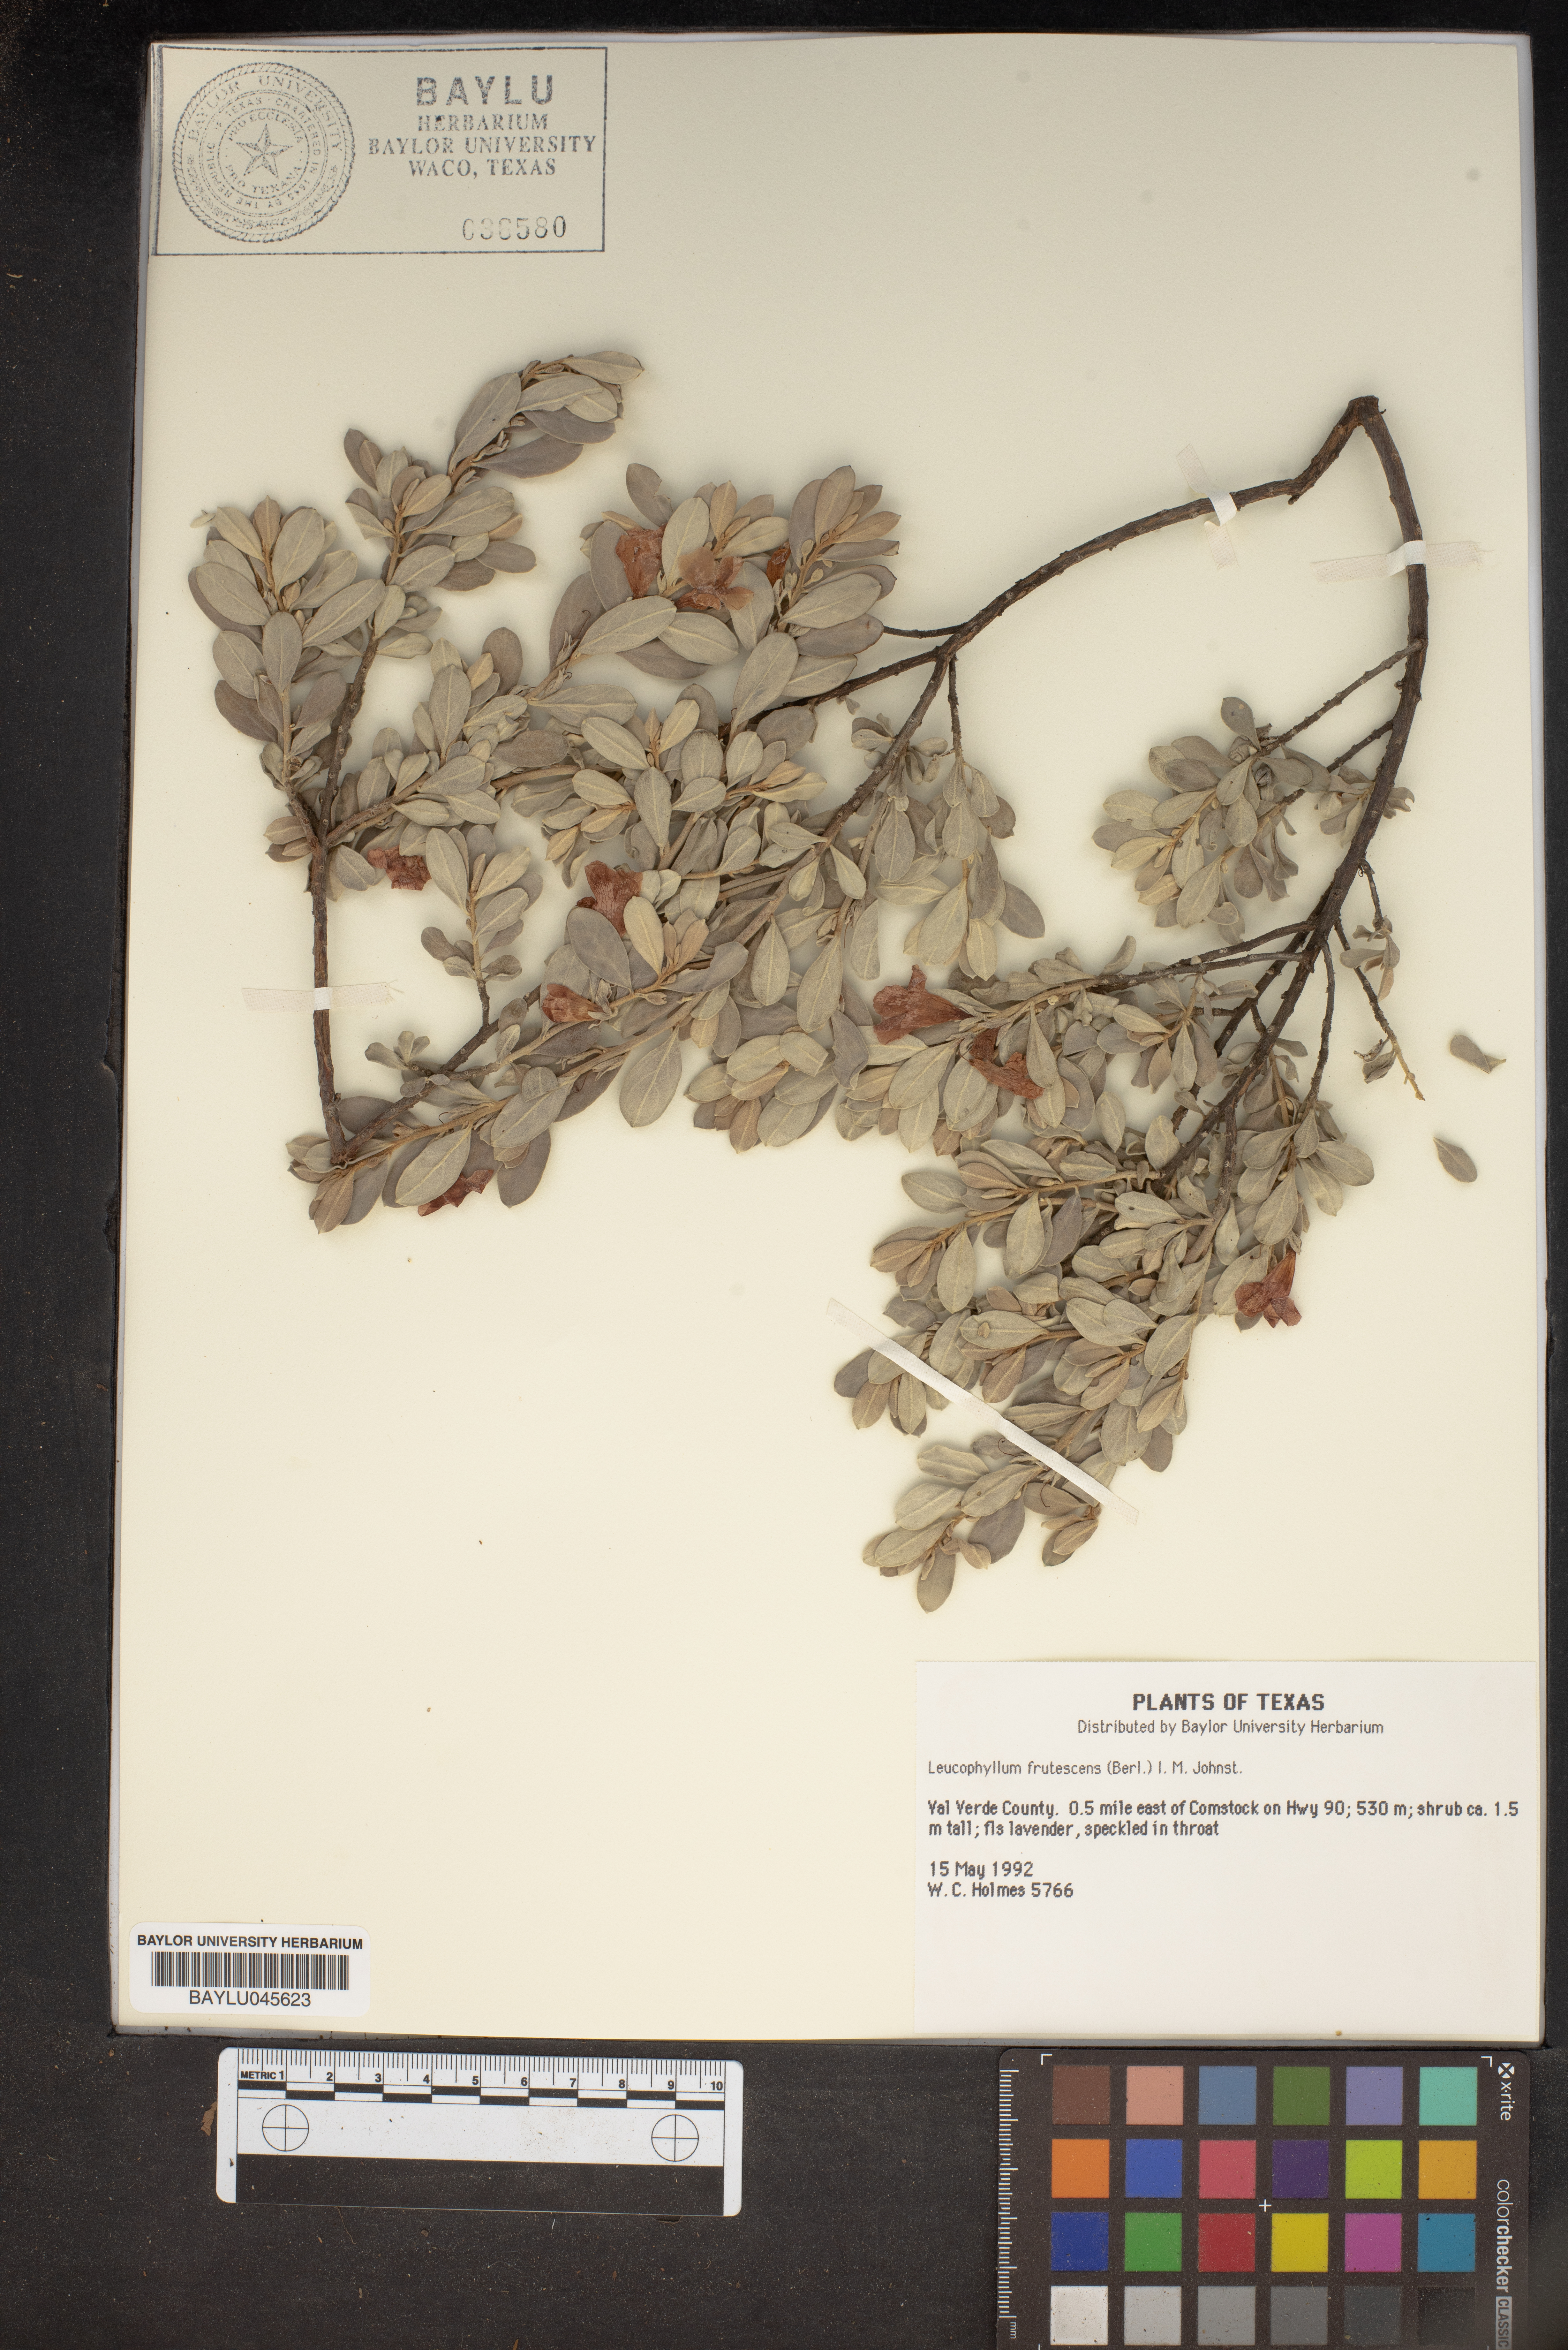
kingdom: Plantae
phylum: Tracheophyta
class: Magnoliopsida
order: Lamiales
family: Scrophulariaceae
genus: Leucophyllum
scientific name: Leucophyllum frutescens
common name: Texas silverleaf
